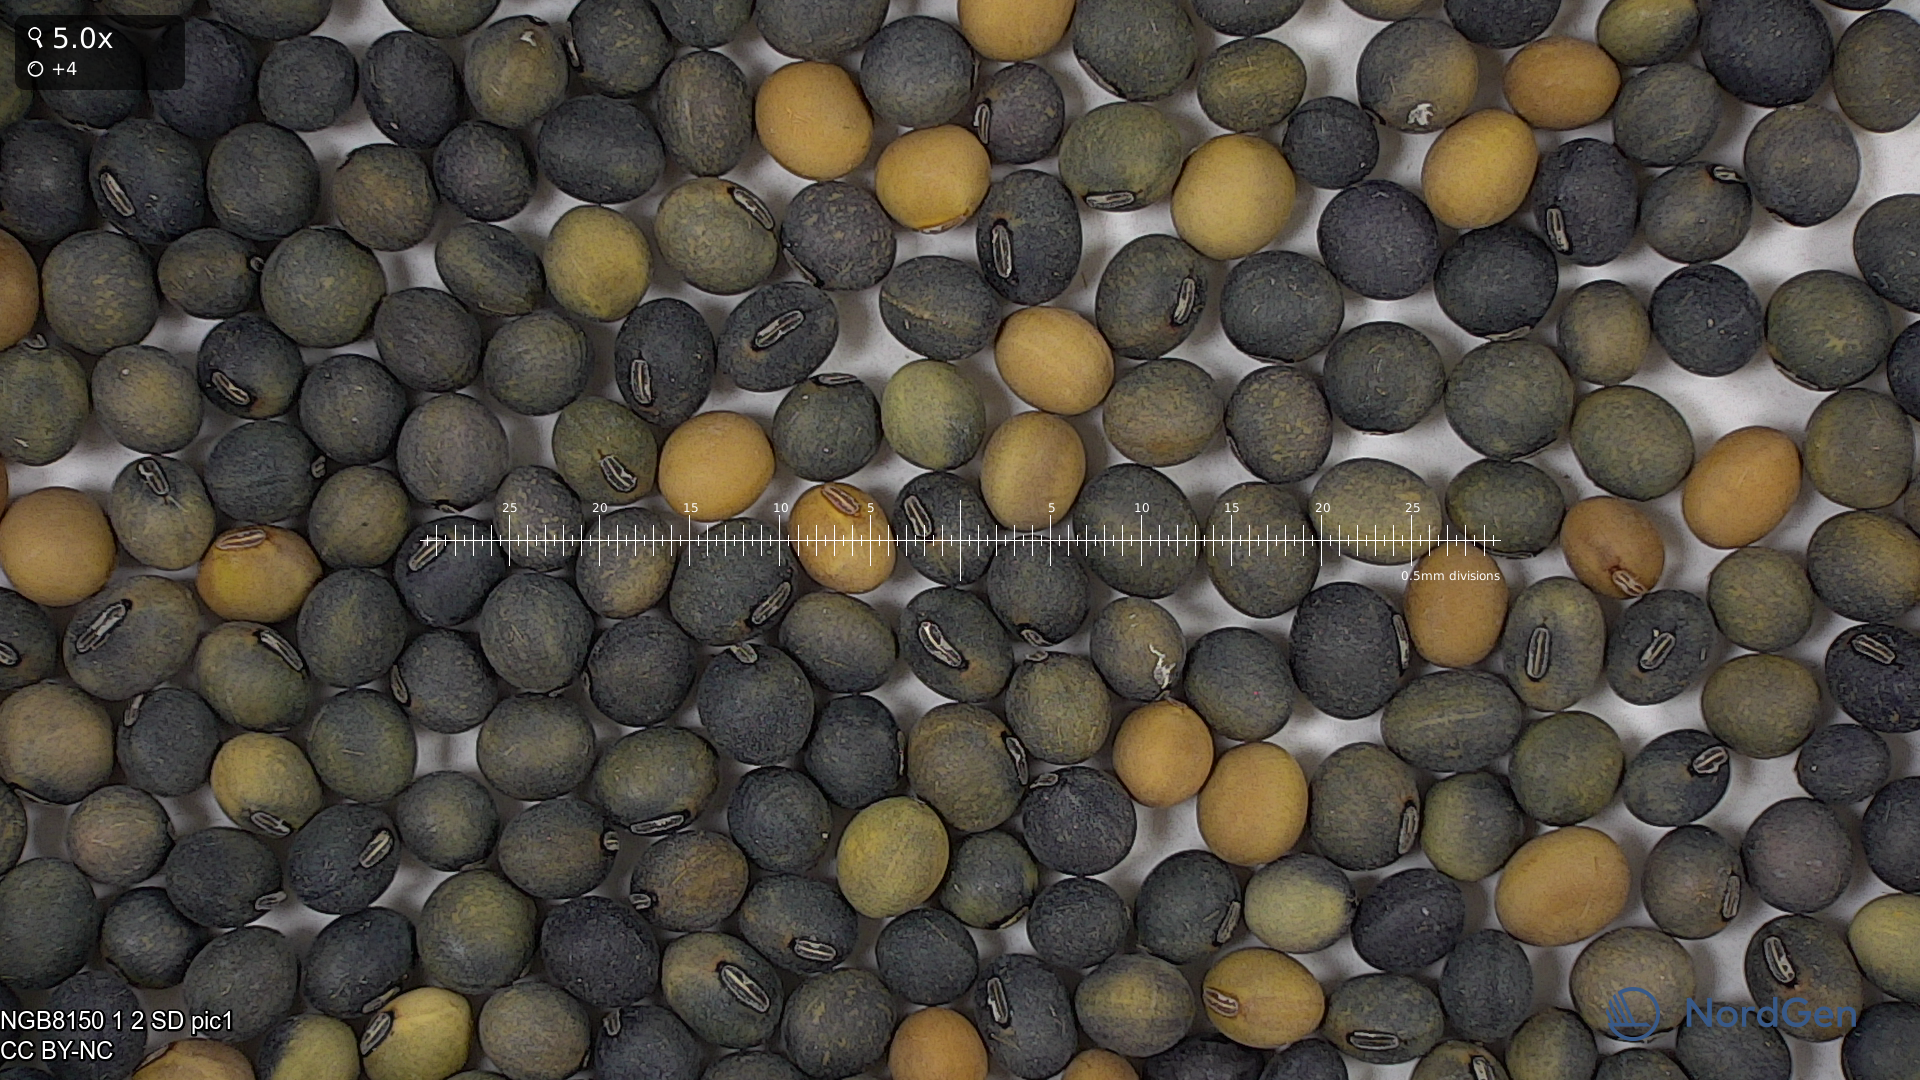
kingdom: Plantae
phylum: Tracheophyta
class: Magnoliopsida
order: Fabales
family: Fabaceae
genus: Glycine
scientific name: Glycine max
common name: Soya-bean
